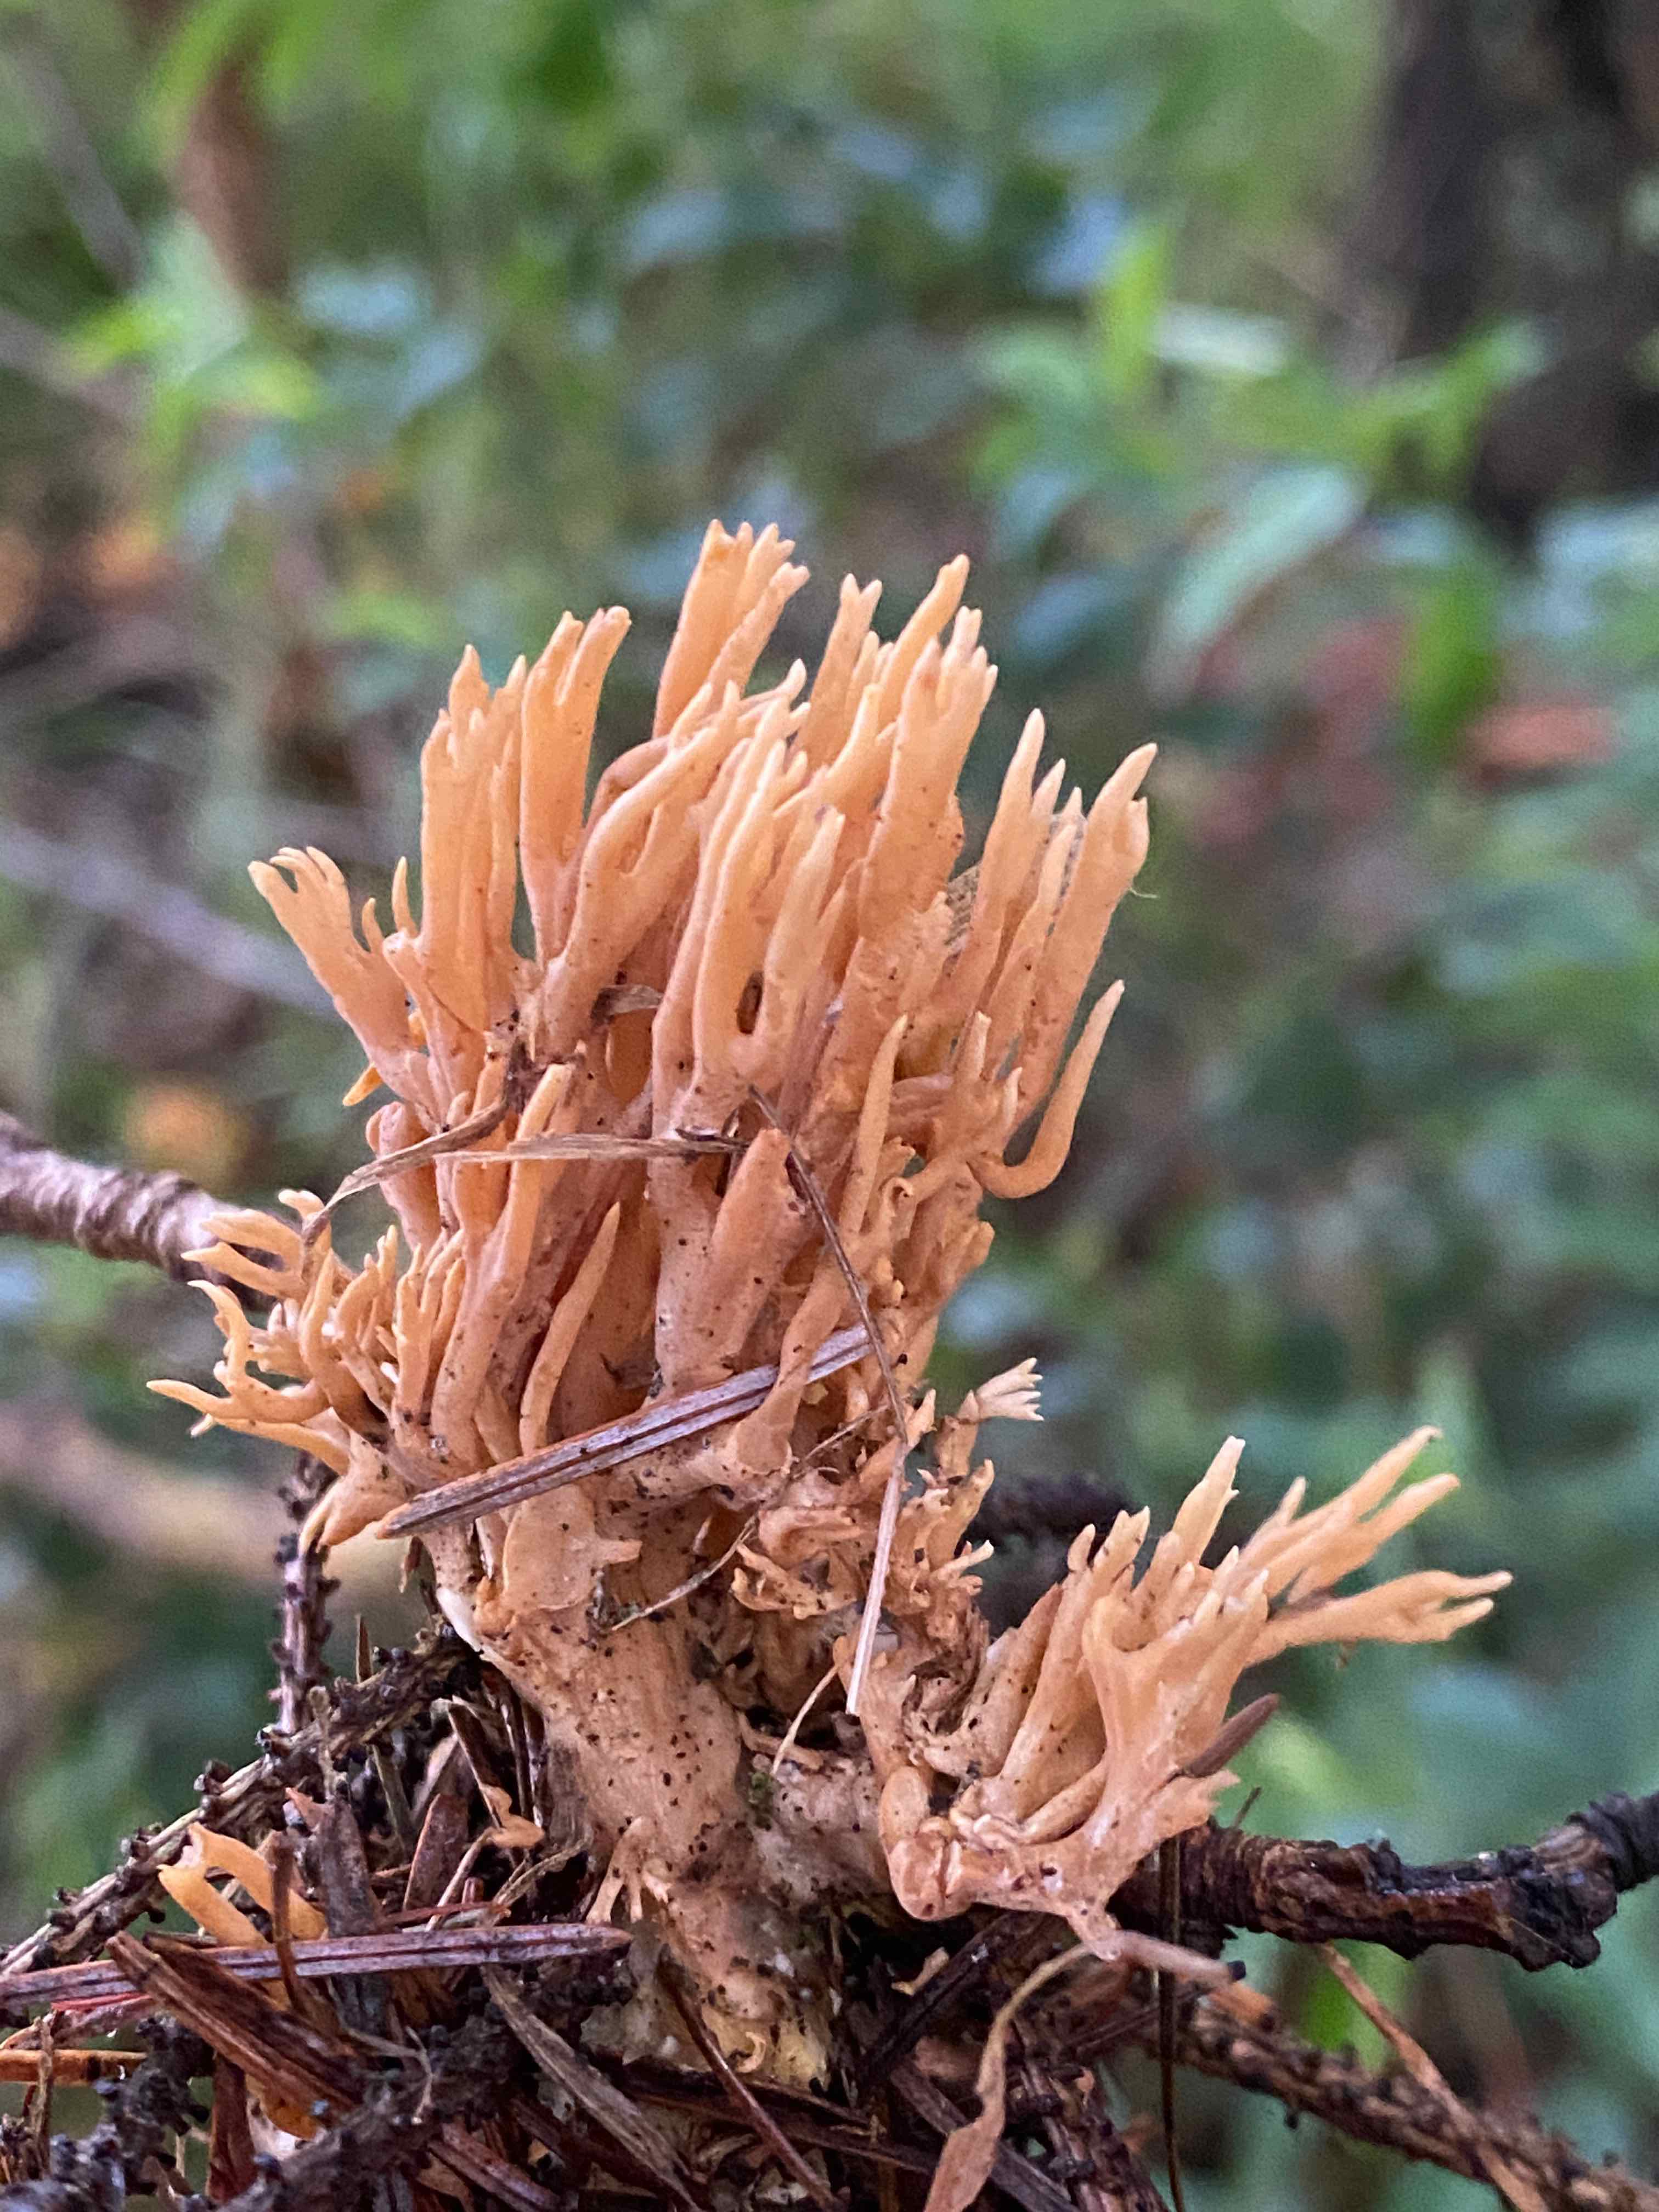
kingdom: Fungi
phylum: Basidiomycota
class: Agaricomycetes
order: Gomphales
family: Gomphaceae
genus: Phaeoclavulina
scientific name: Phaeoclavulina eumorpha
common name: gran-koralsvamp
